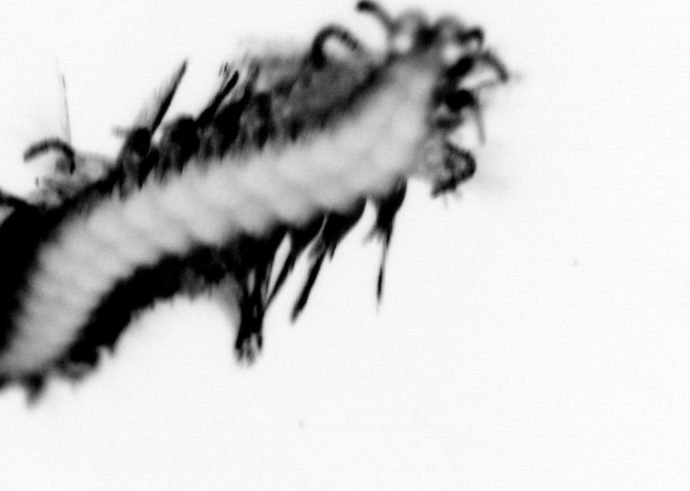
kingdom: Animalia
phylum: Annelida
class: Polychaeta
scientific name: Polychaeta
